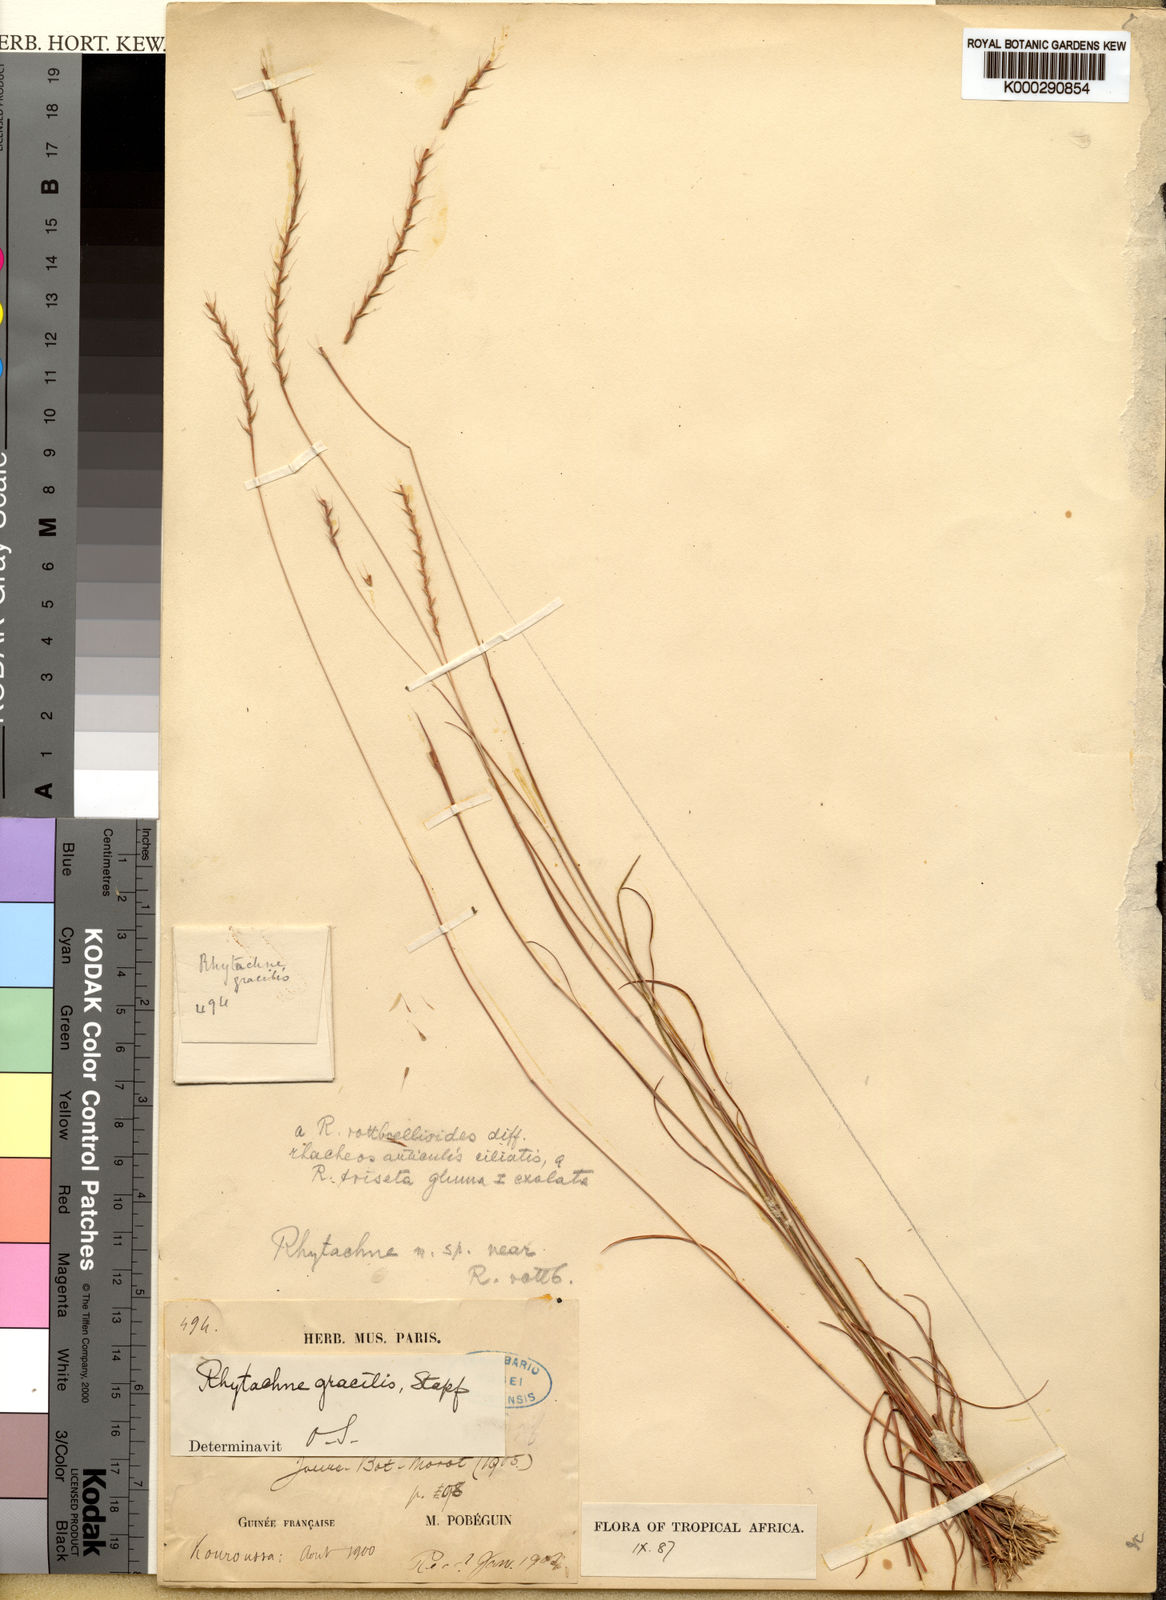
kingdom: Plantae
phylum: Tracheophyta
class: Liliopsida
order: Poales
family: Poaceae
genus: Rhytachne
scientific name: Rhytachne gracilis
